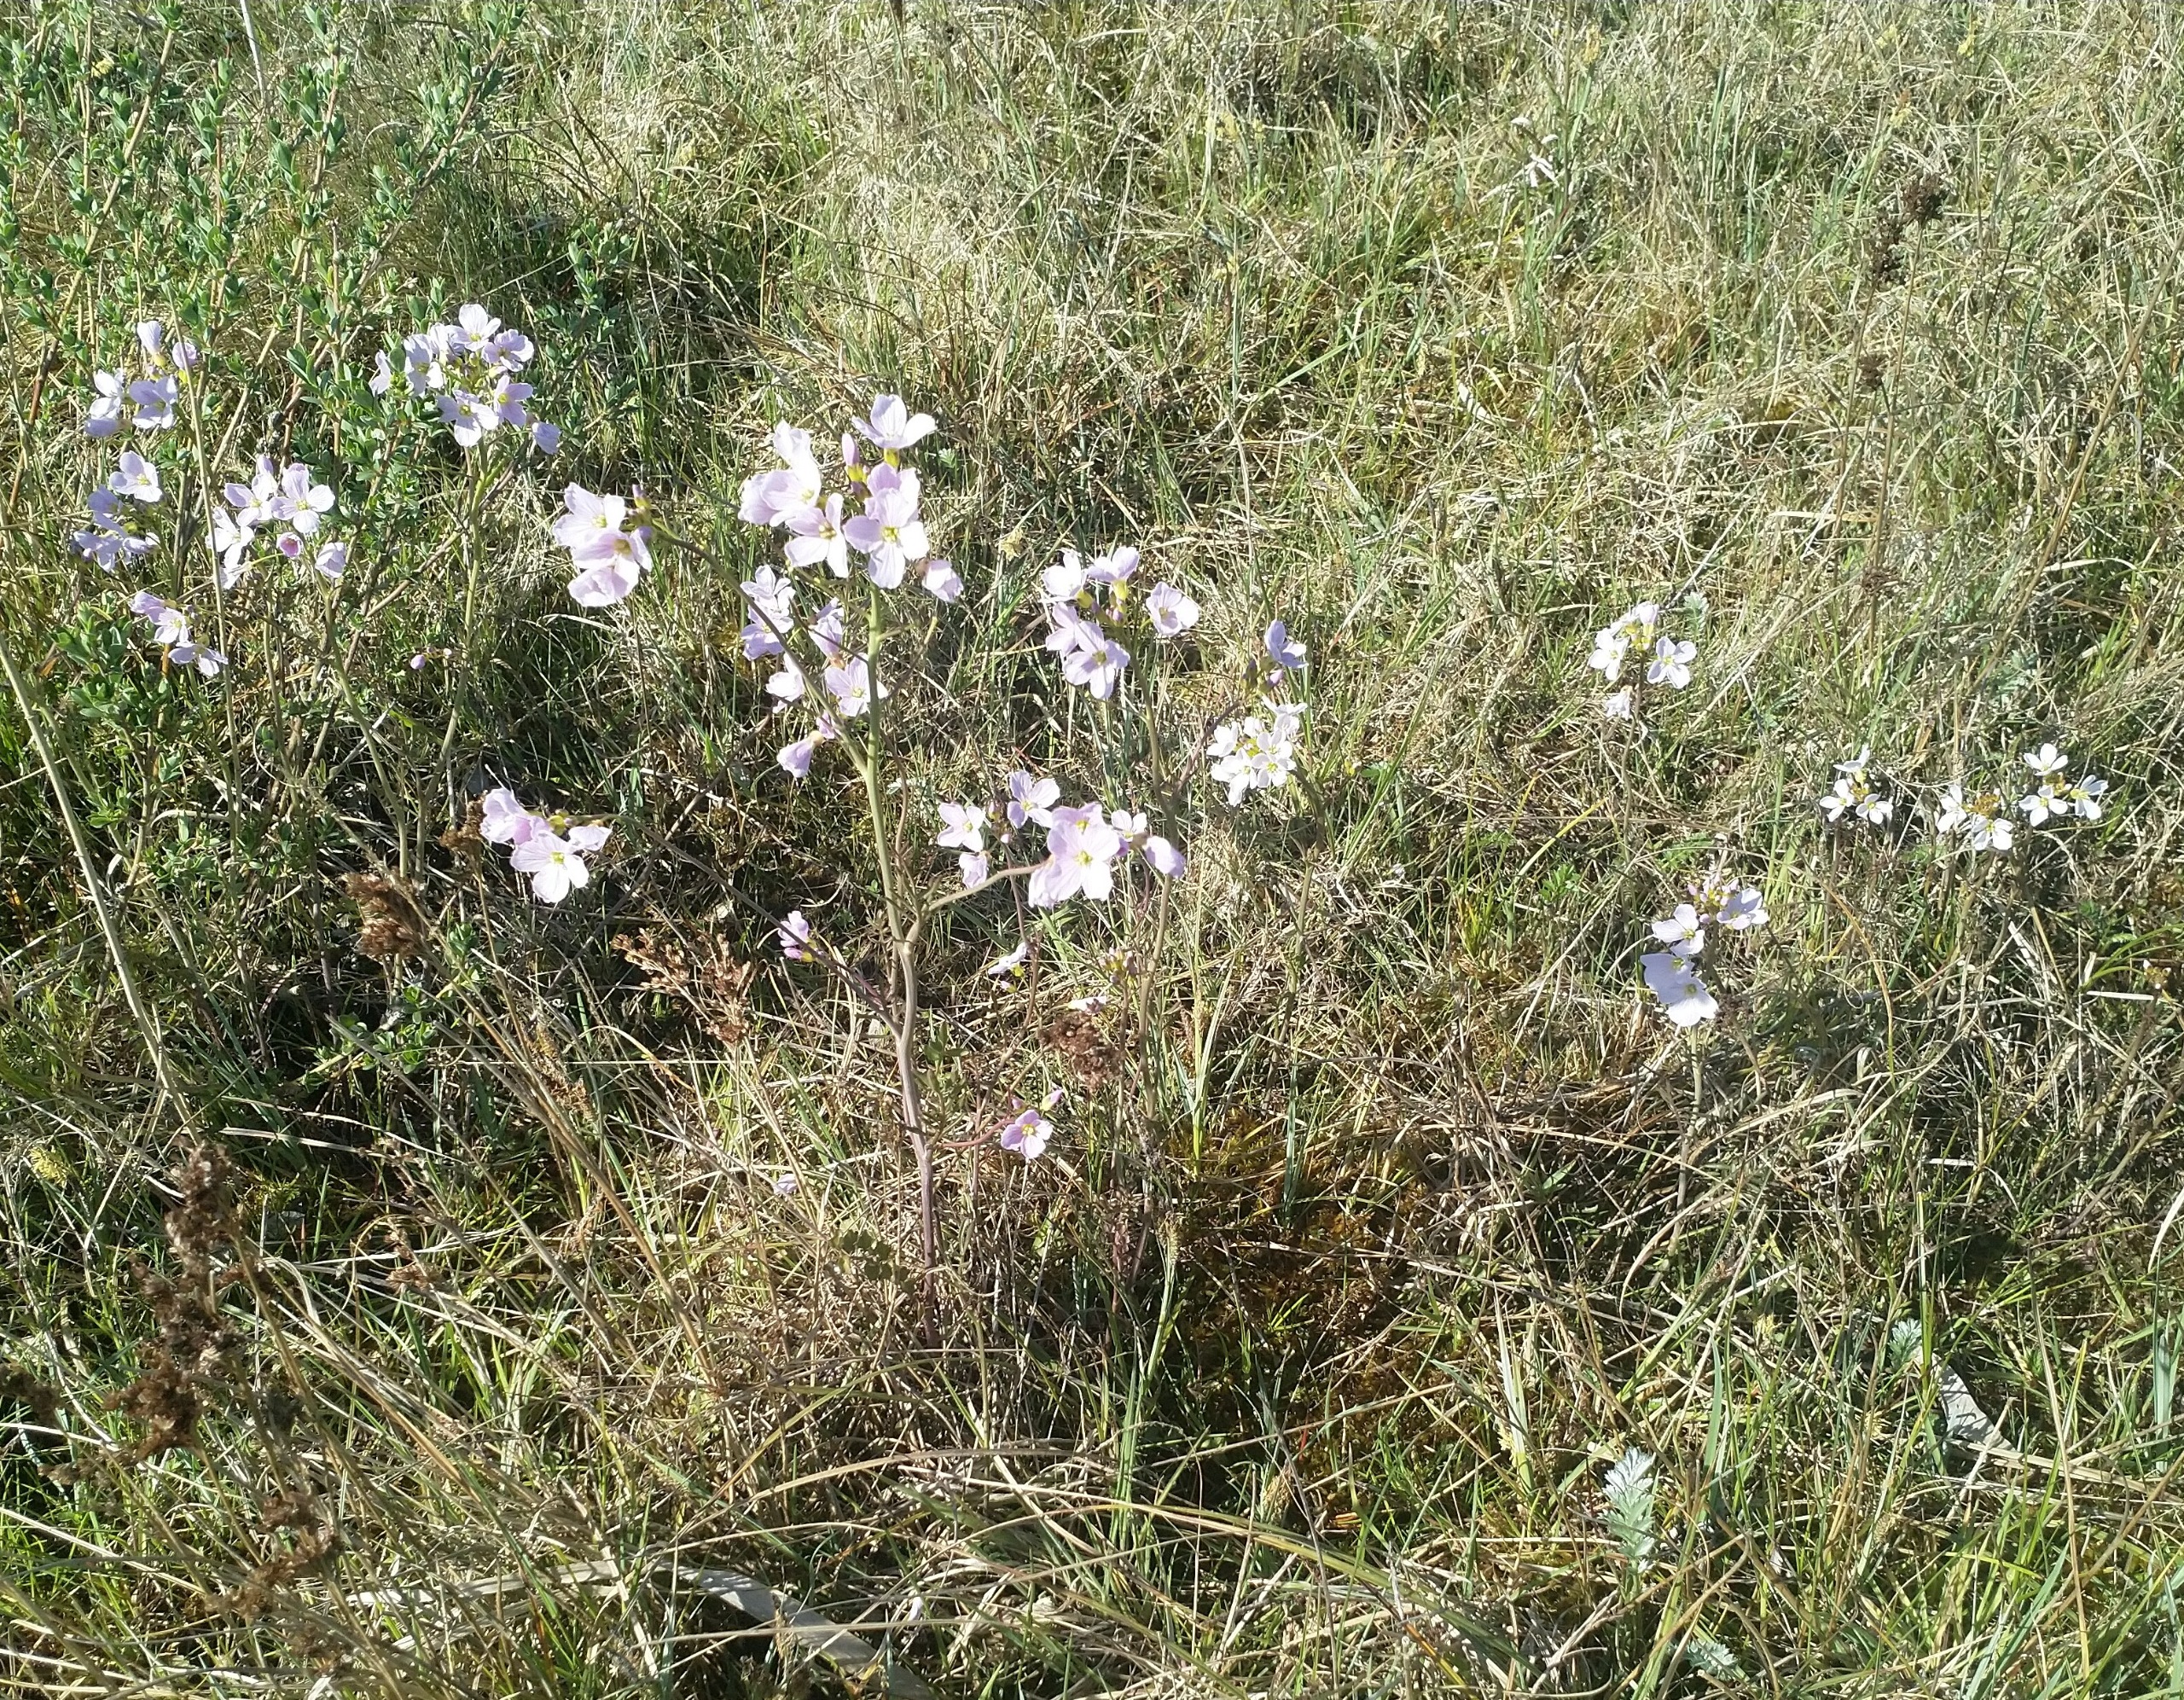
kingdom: Plantae
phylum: Tracheophyta
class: Magnoliopsida
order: Brassicales
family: Brassicaceae
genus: Cardamine
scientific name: Cardamine pratensis
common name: Engkarse
